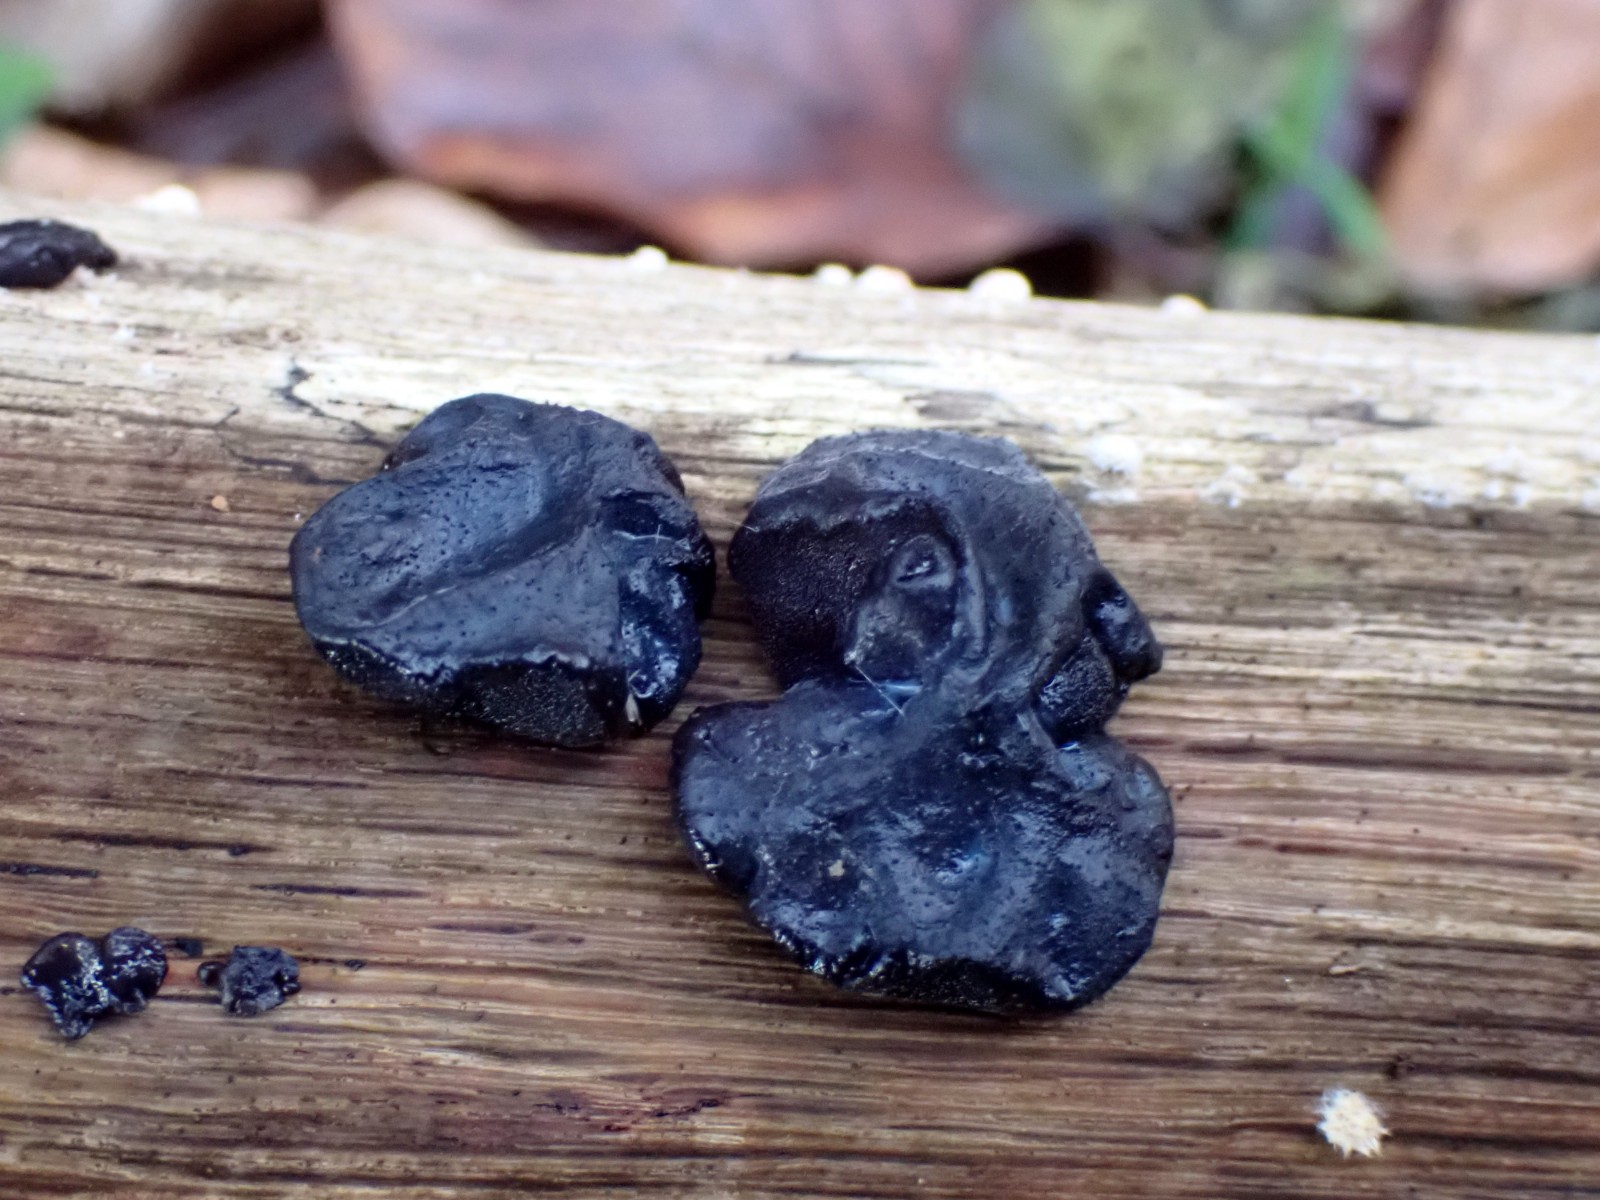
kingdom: Fungi
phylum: Basidiomycota
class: Agaricomycetes
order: Auriculariales
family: Auriculariaceae
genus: Exidia
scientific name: Exidia glandulosa
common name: ege-bævretop
